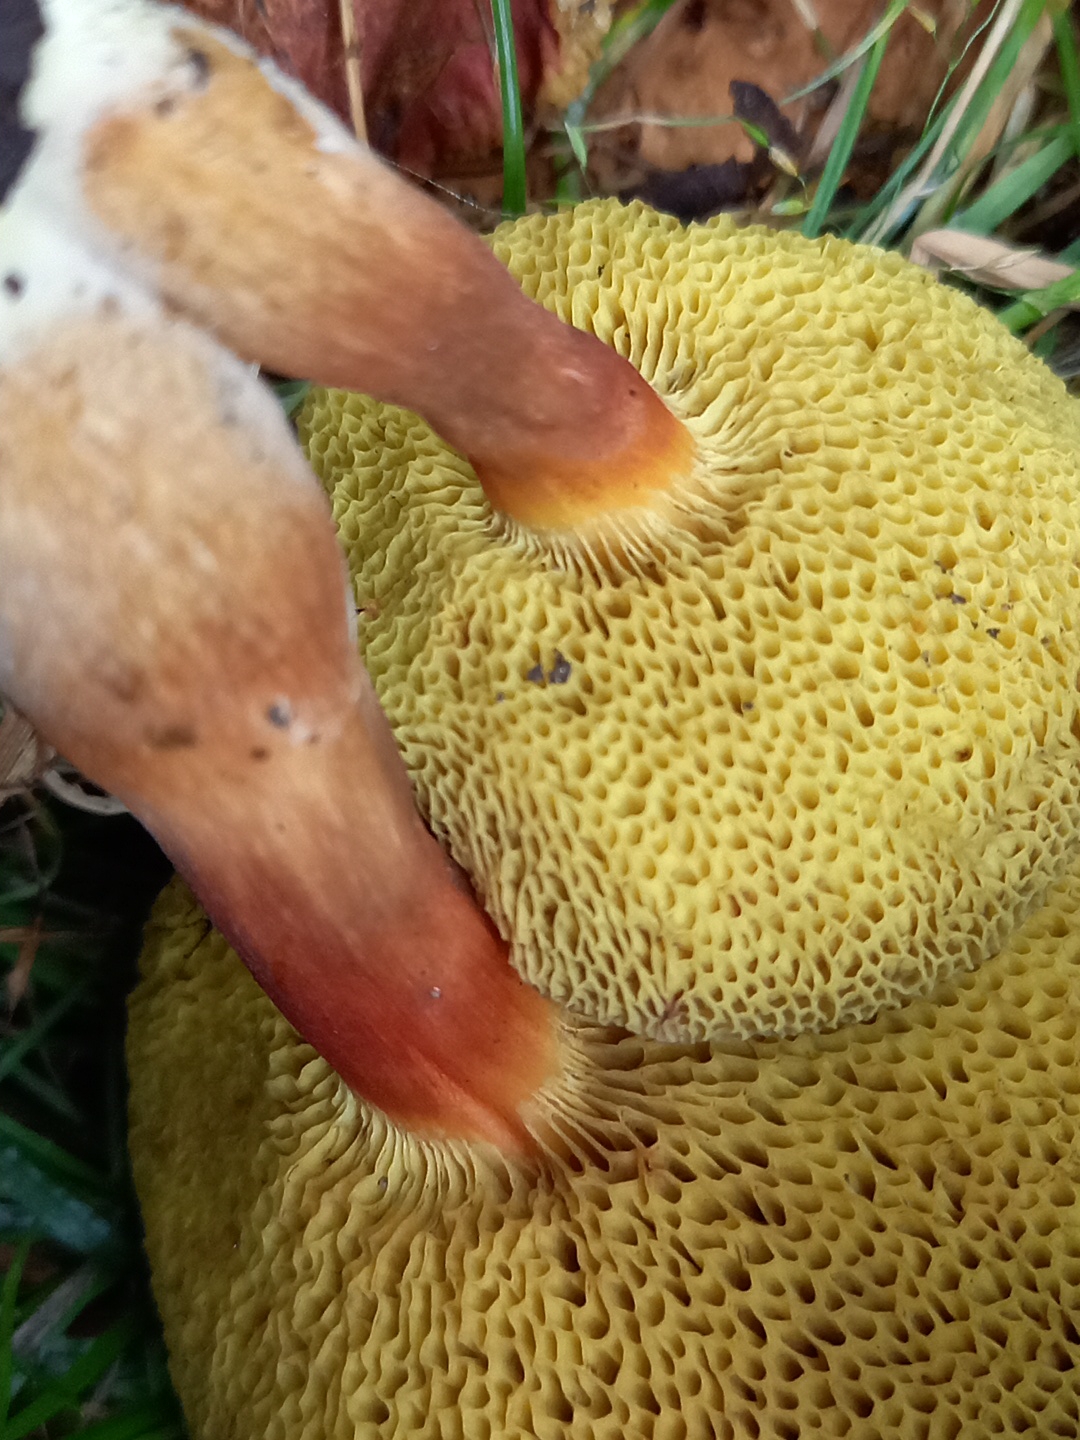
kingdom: Fungi
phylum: Basidiomycota
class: Agaricomycetes
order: Boletales
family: Boletaceae
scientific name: Boletaceae
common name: rørhatfamilien
